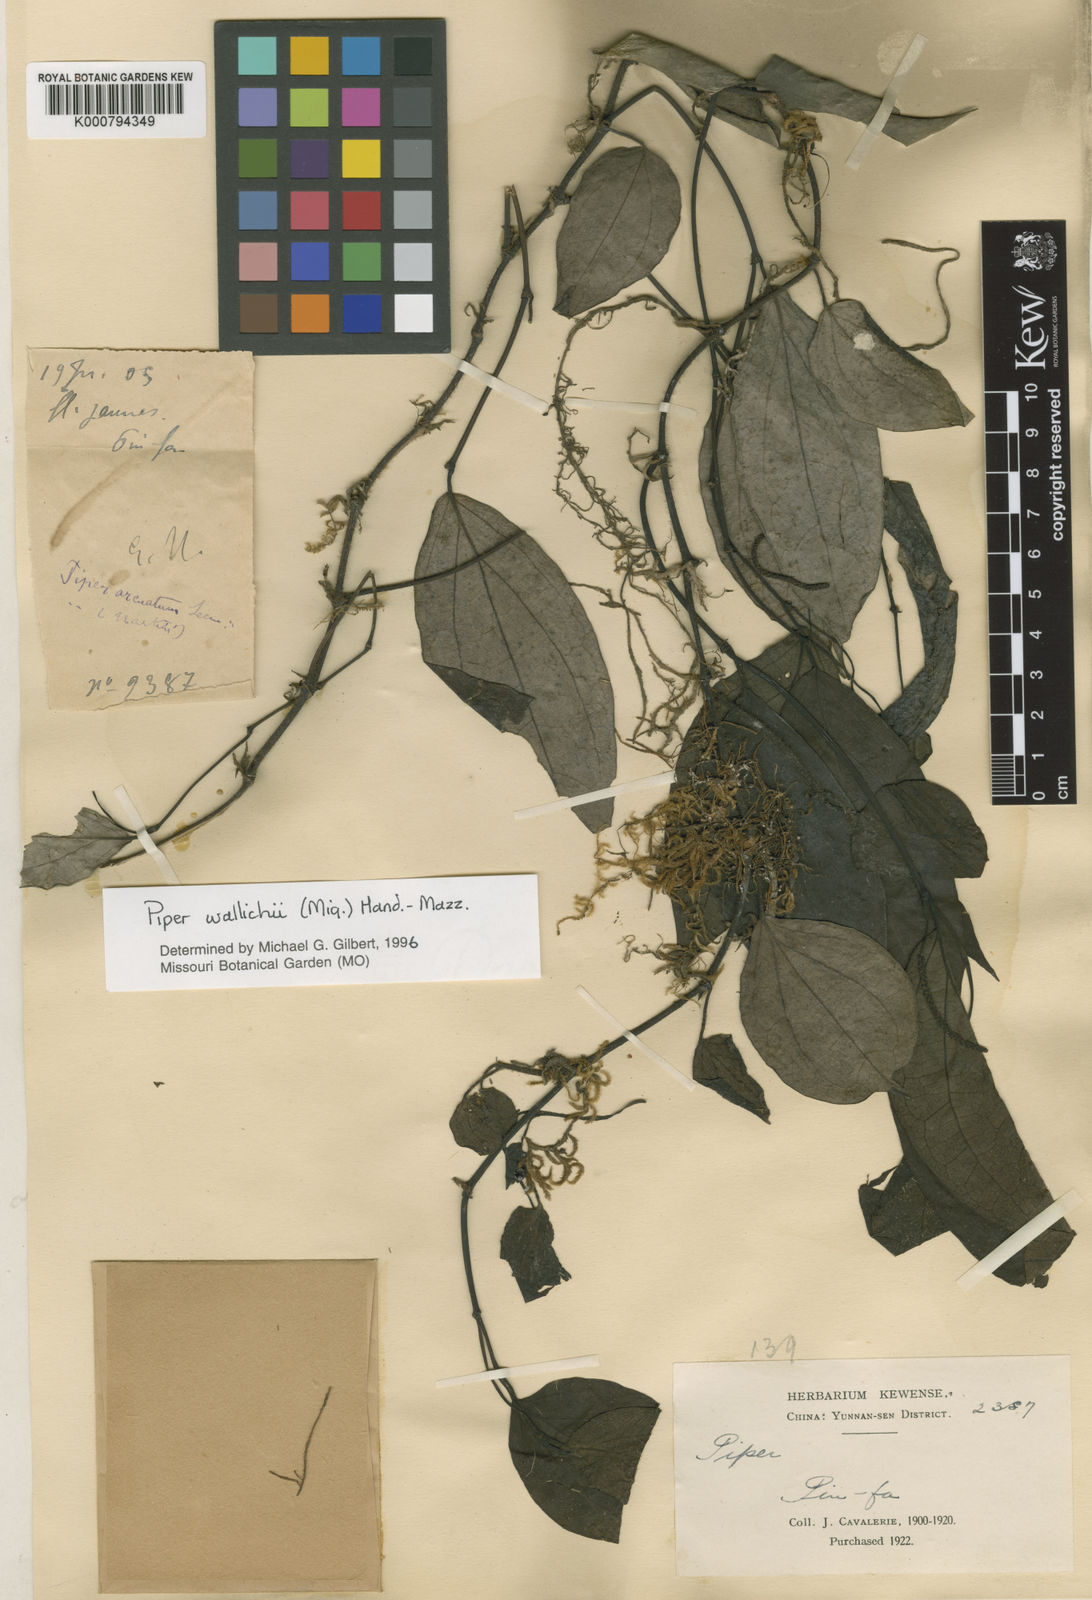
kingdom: Plantae
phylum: Tracheophyta
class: Magnoliopsida
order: Piperales
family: Piperaceae
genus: Piper
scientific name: Piper wallichii
